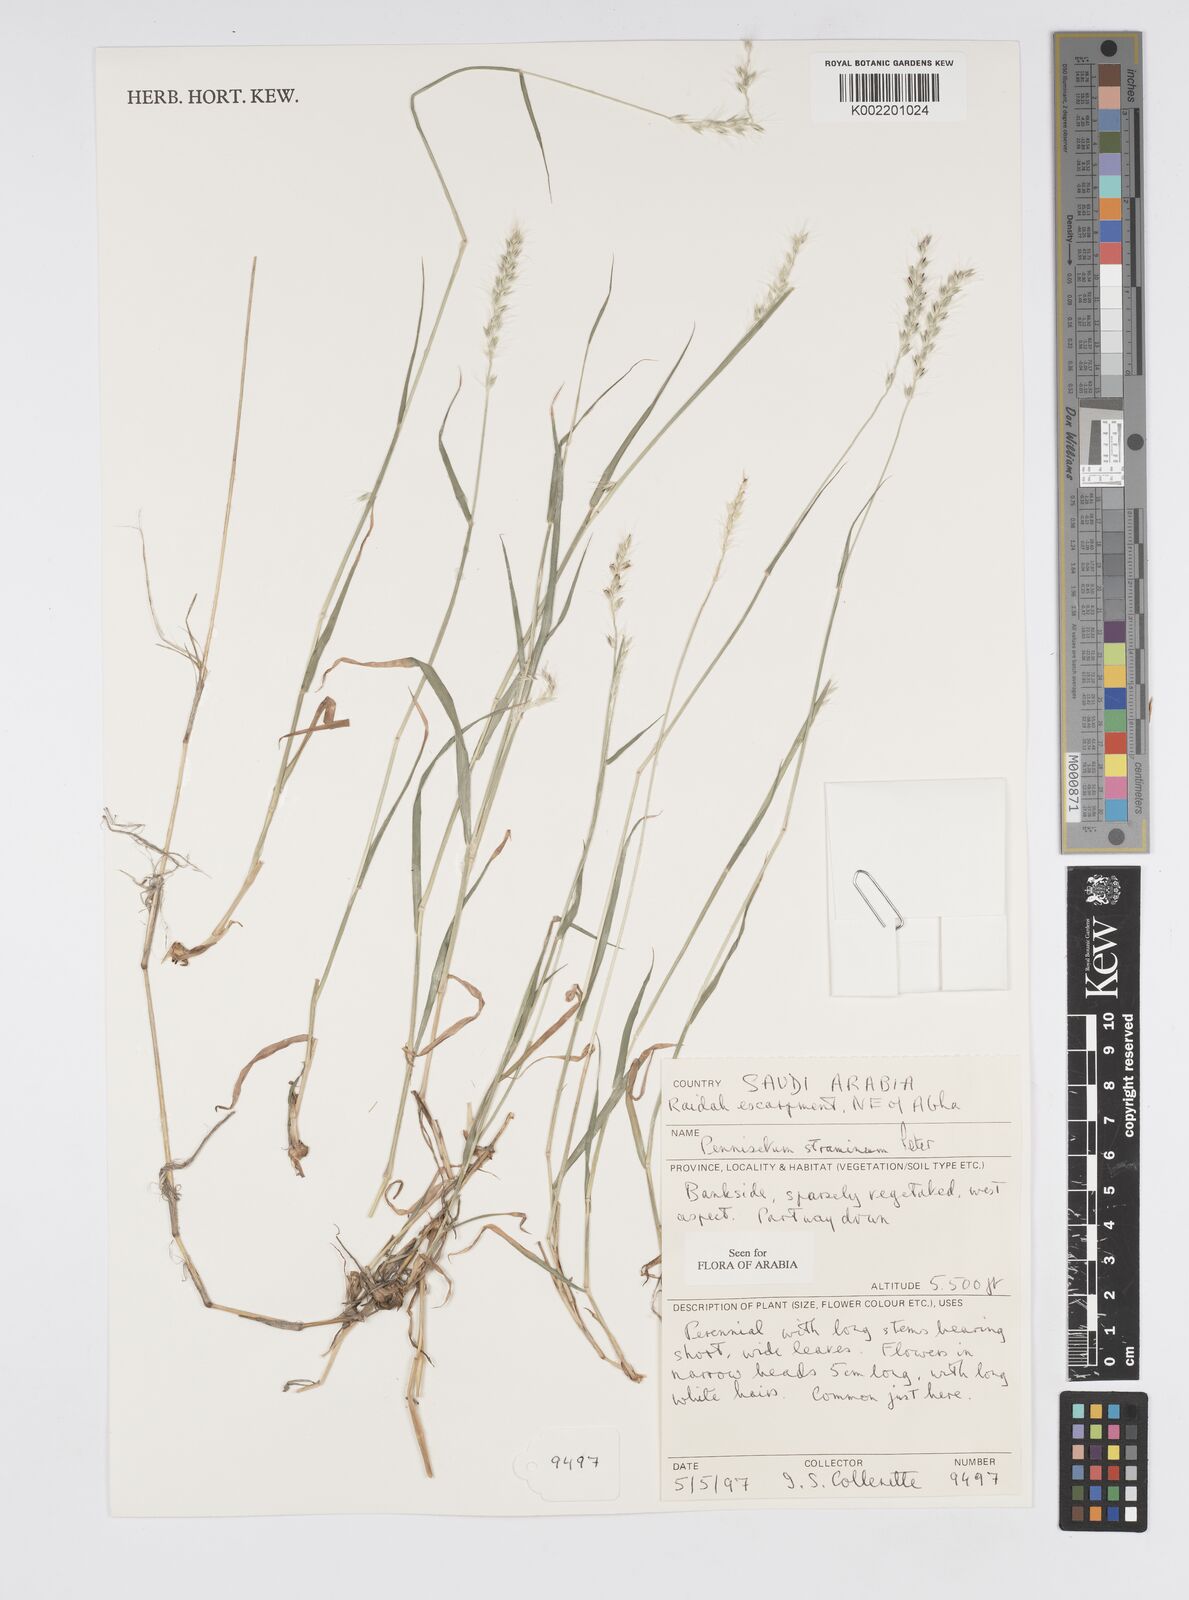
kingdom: Plantae
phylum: Tracheophyta
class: Liliopsida
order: Poales
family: Poaceae
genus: Cenchrus
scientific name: Cenchrus stramineus
